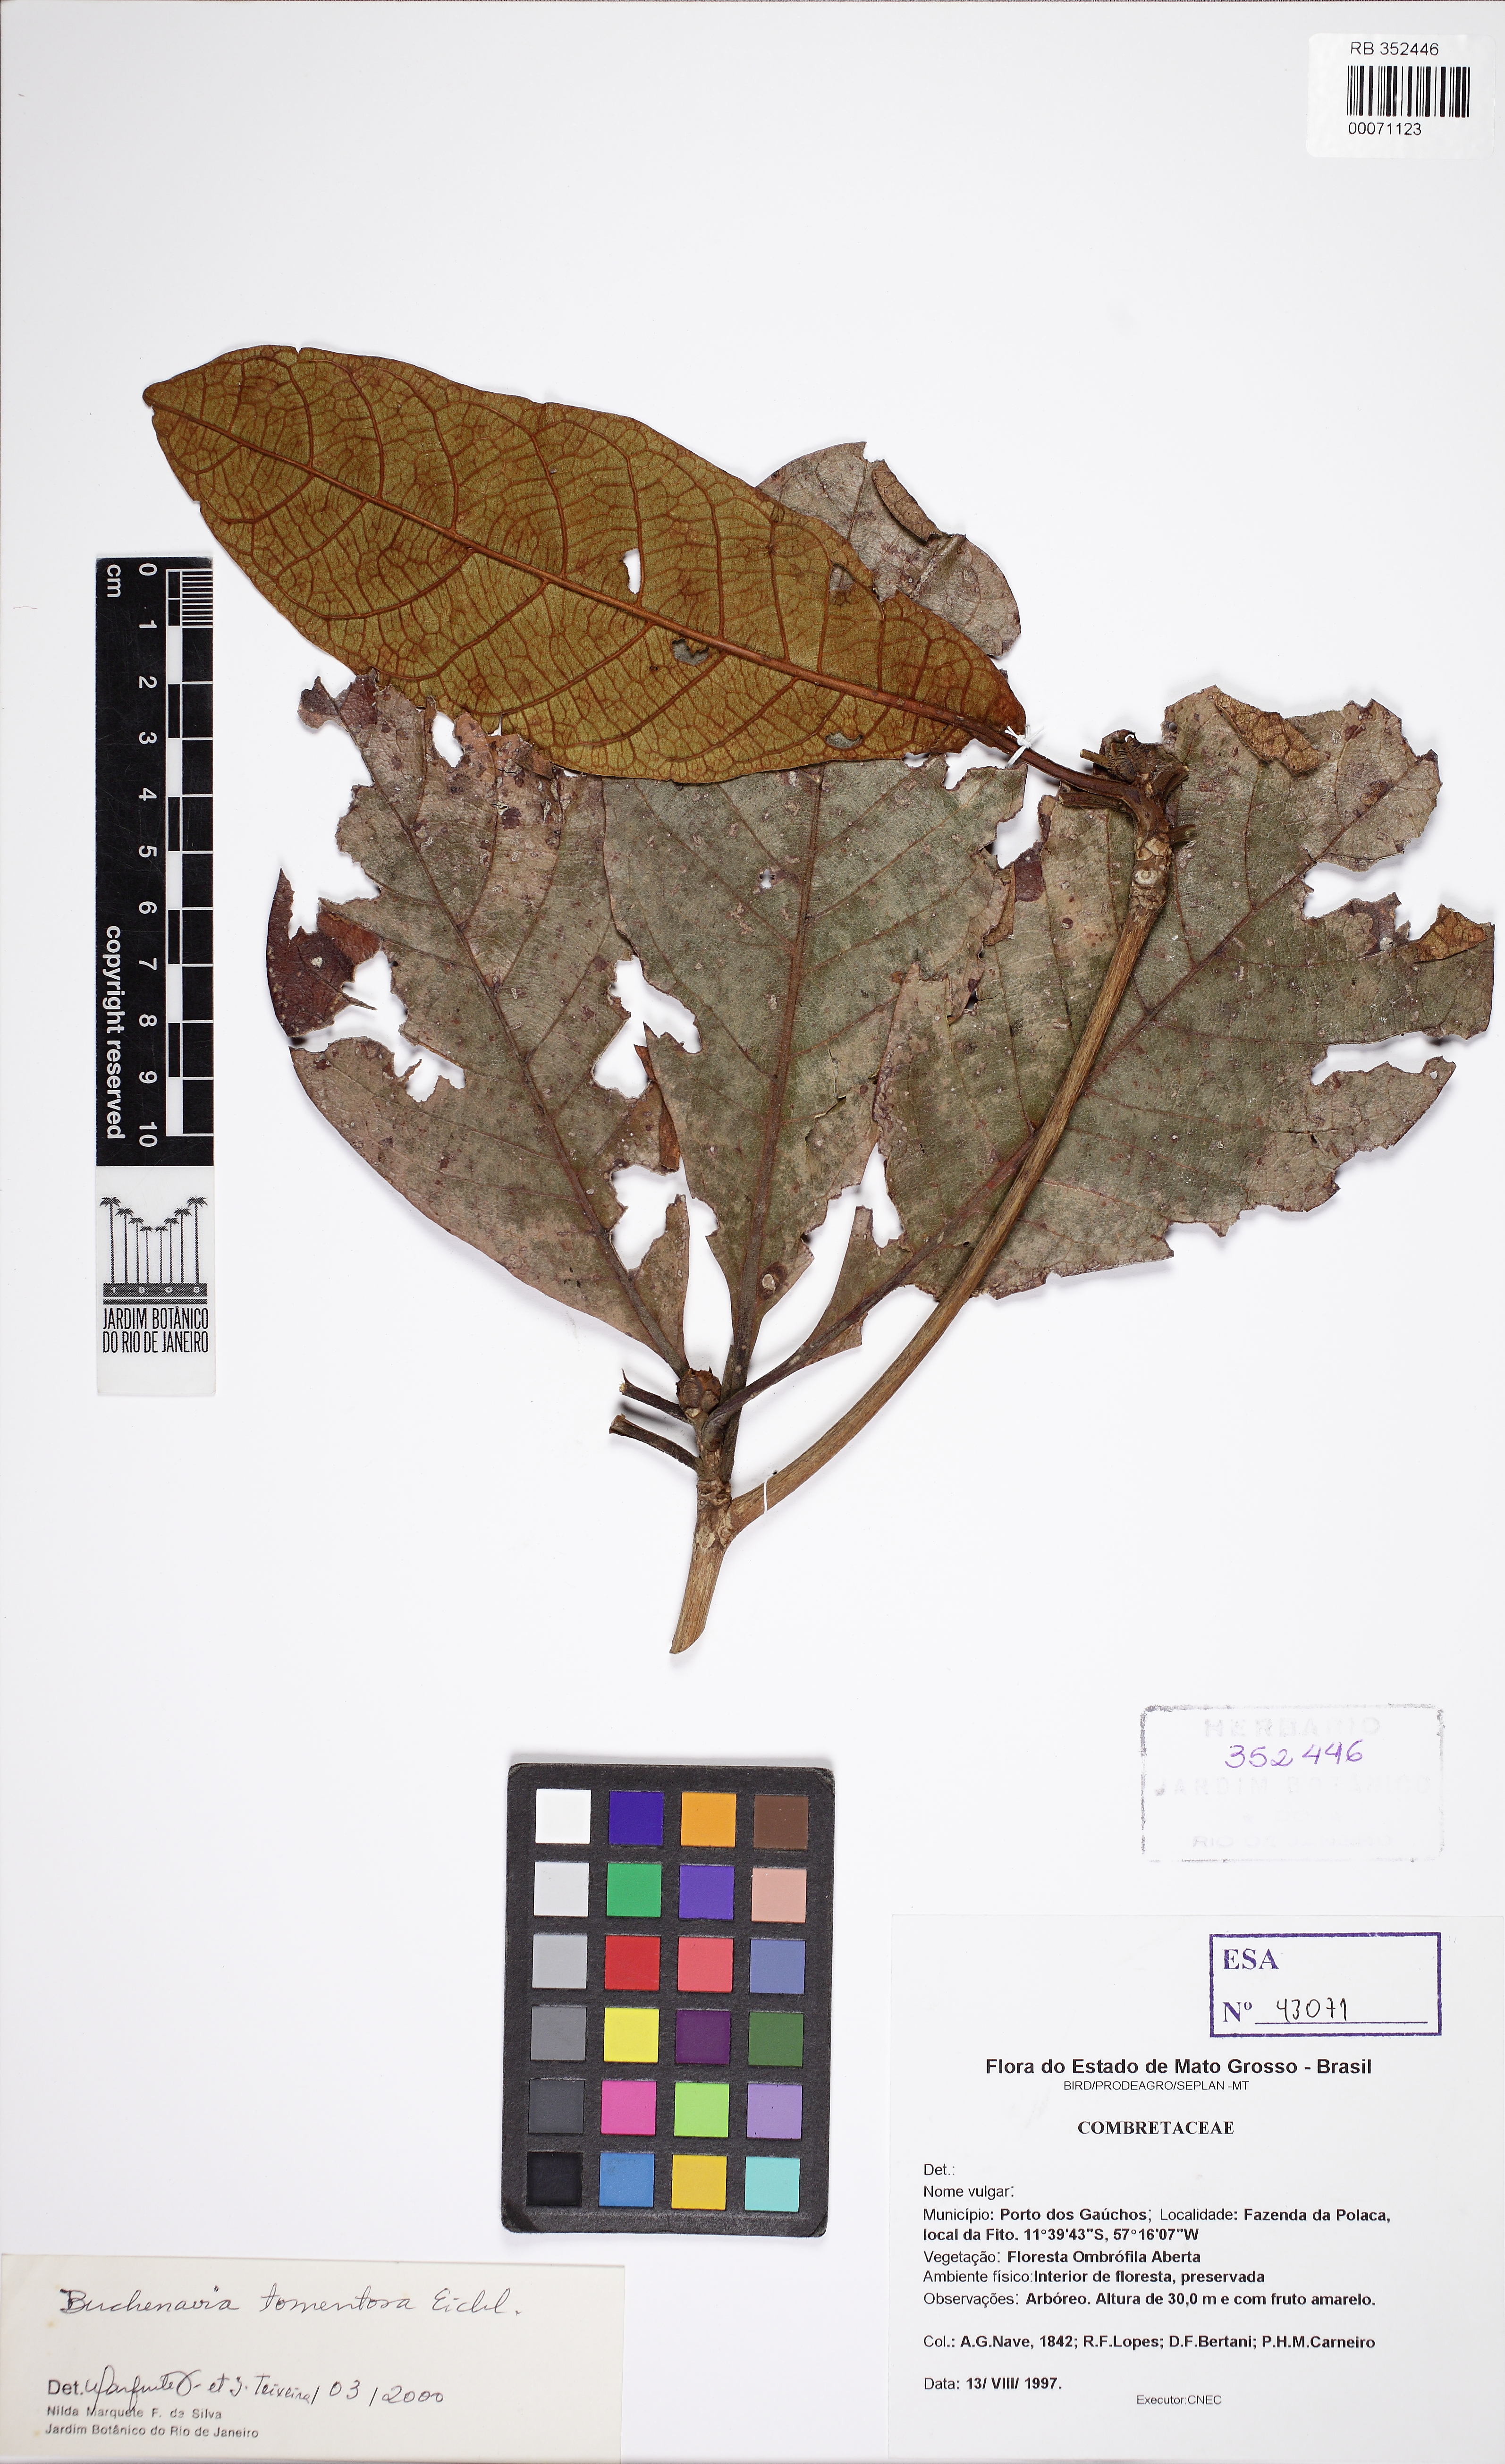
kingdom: Plantae
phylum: Tracheophyta
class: Magnoliopsida
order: Myrtales
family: Combretaceae
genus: Terminalia
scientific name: Terminalia corrugata
